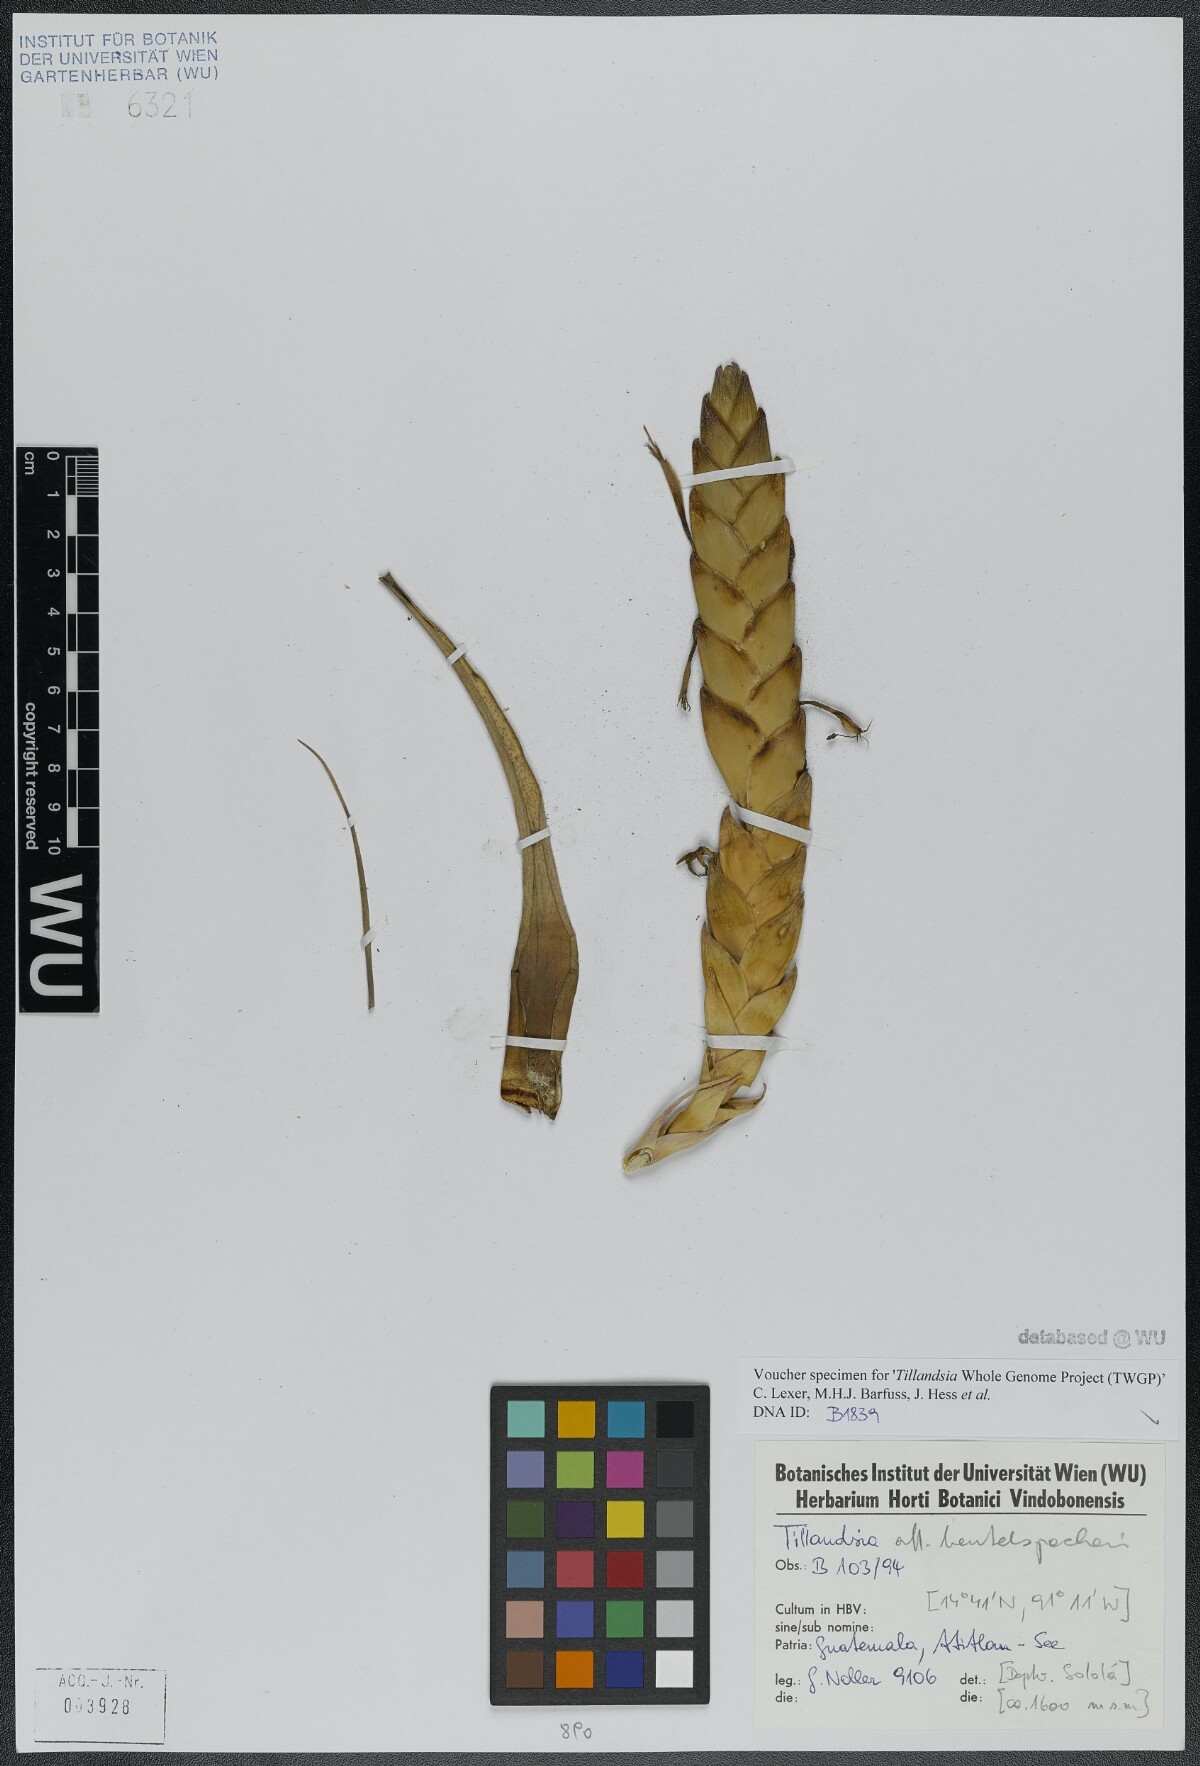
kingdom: Plantae
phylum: Tracheophyta
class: Liliopsida
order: Poales
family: Bromeliaceae
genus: Tillandsia
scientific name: Tillandsia compressa
